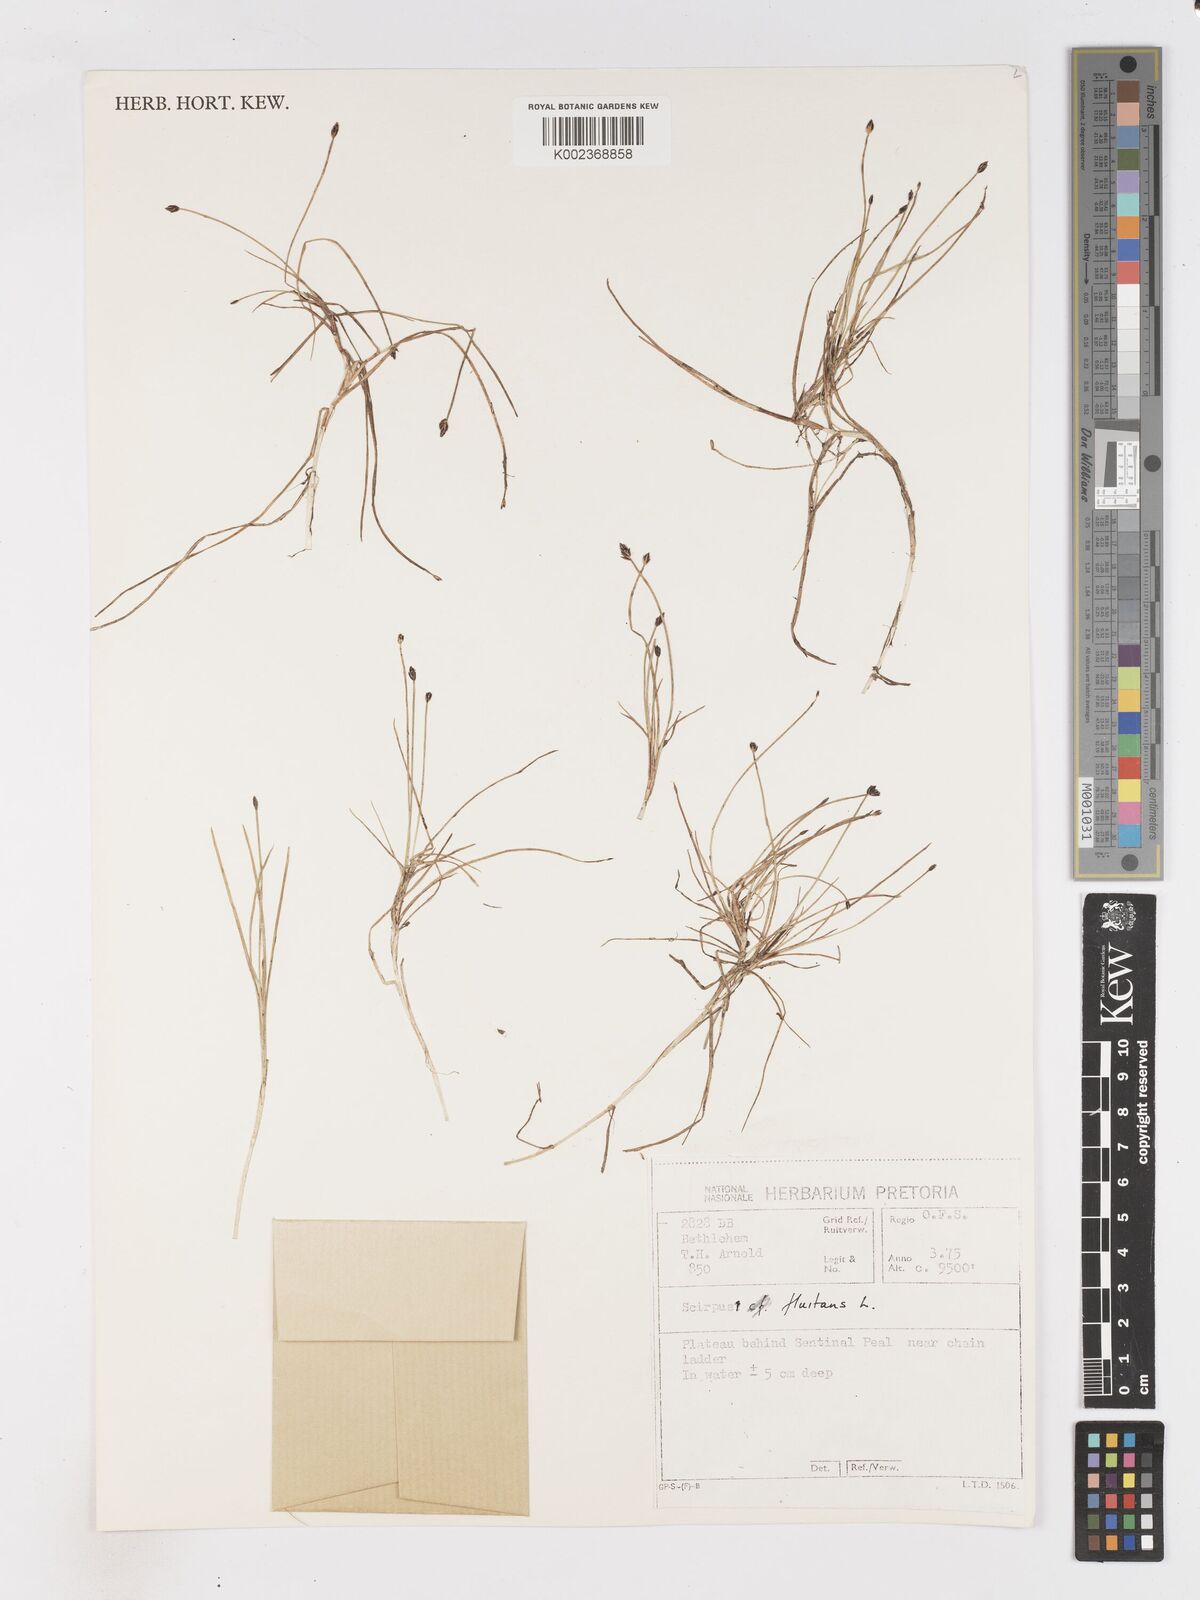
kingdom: Plantae
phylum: Tracheophyta
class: Liliopsida
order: Poales
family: Cyperaceae
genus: Isolepis
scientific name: Isolepis fluitans
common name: Floating club-rush
